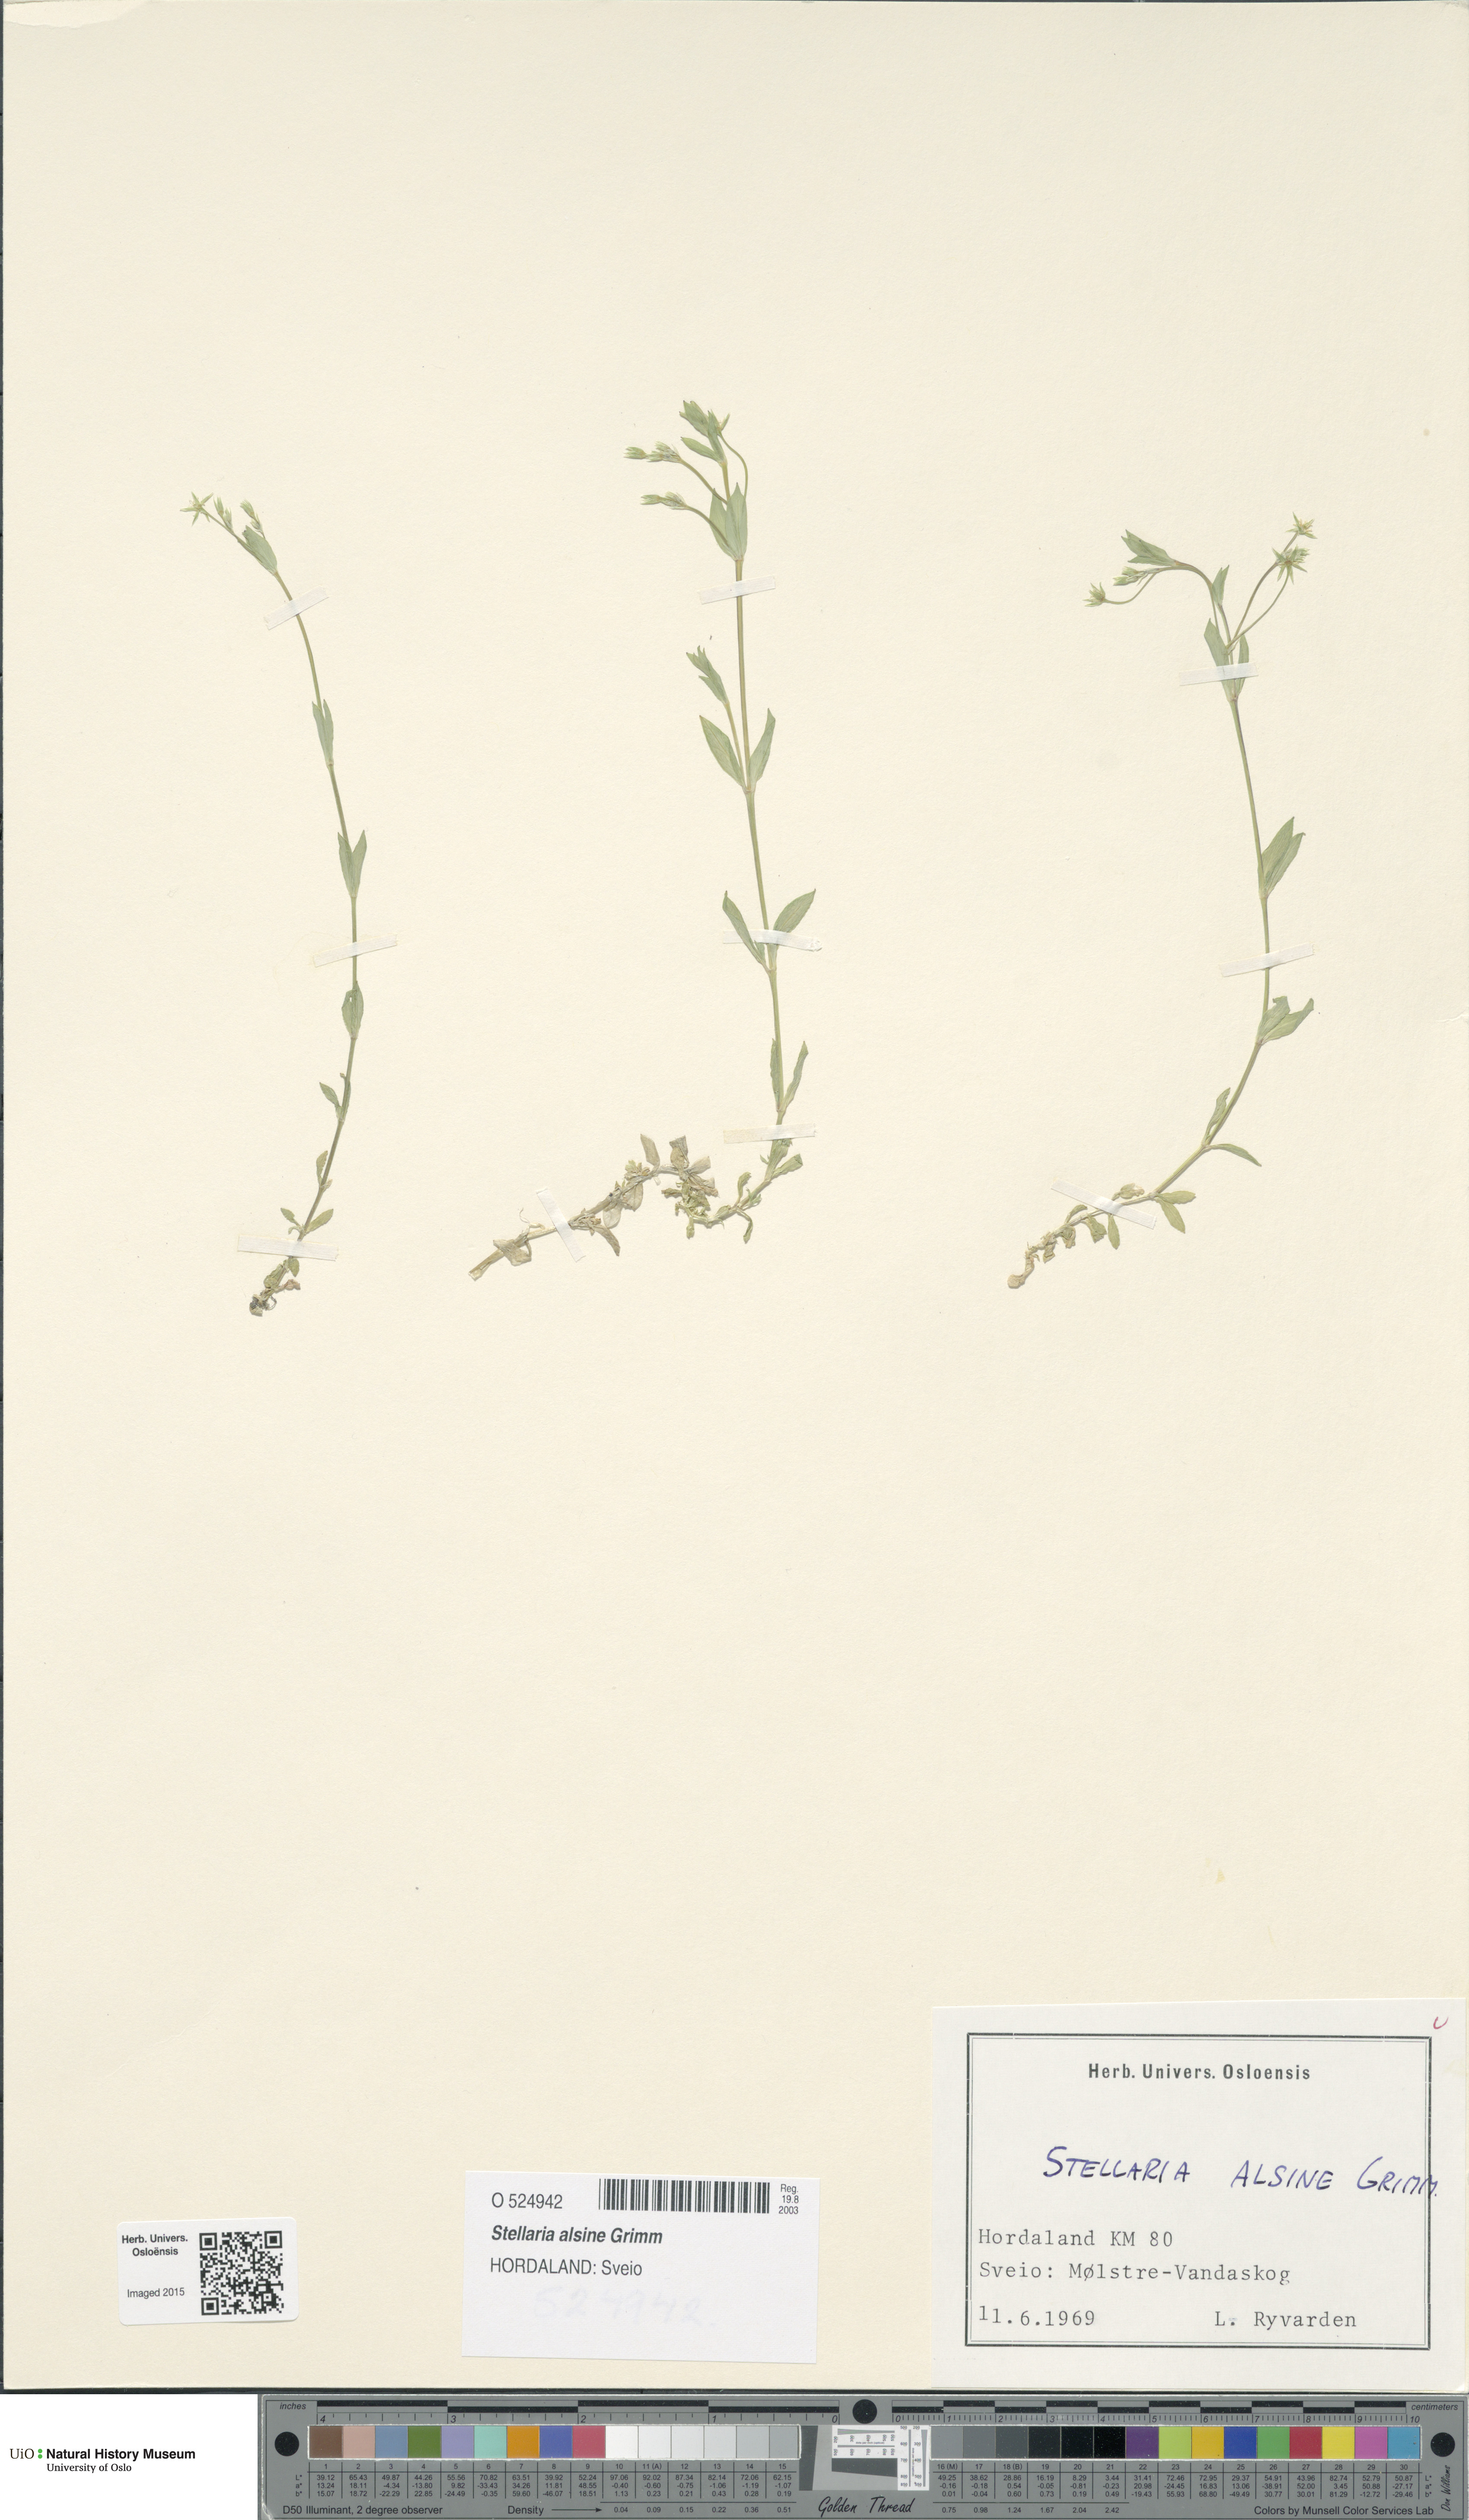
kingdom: Plantae
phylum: Tracheophyta
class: Magnoliopsida
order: Caryophyllales
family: Caryophyllaceae
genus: Stellaria
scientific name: Stellaria alsine
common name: Bog stitchwort
